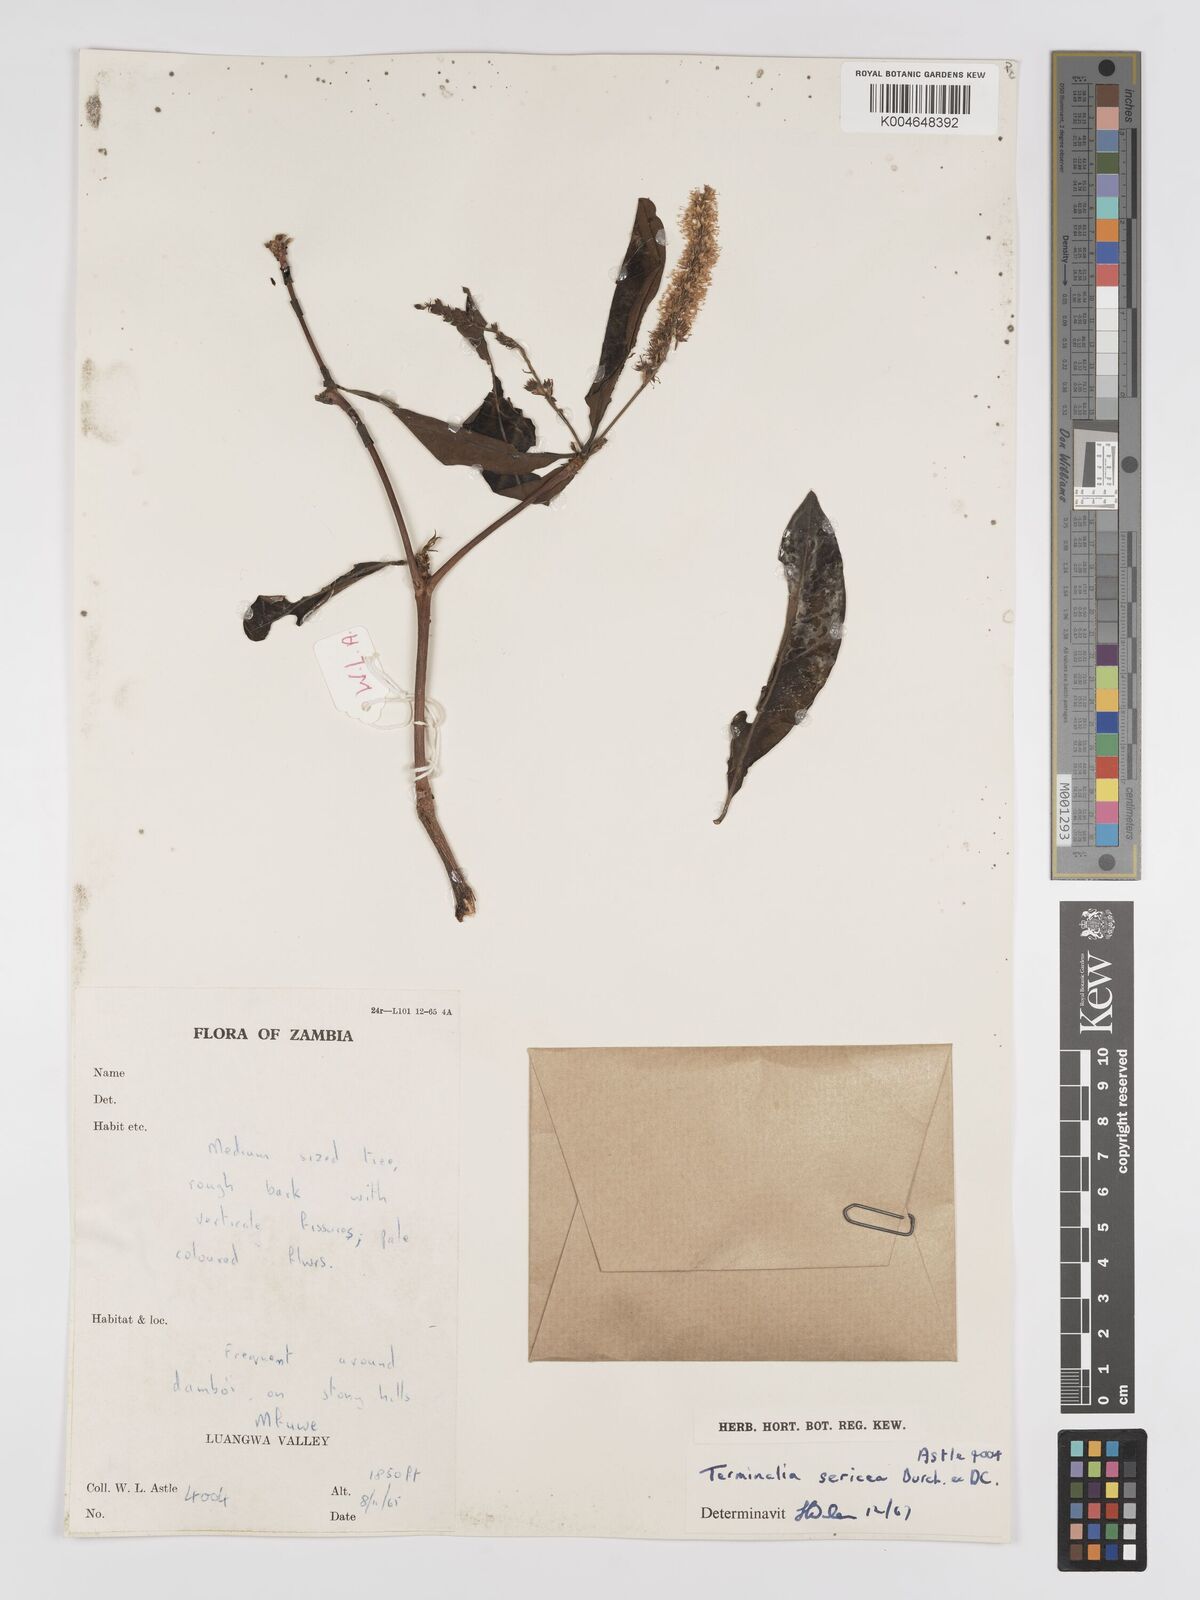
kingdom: Plantae
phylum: Tracheophyta
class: Magnoliopsida
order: Myrtales
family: Combretaceae
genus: Terminalia
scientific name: Terminalia
